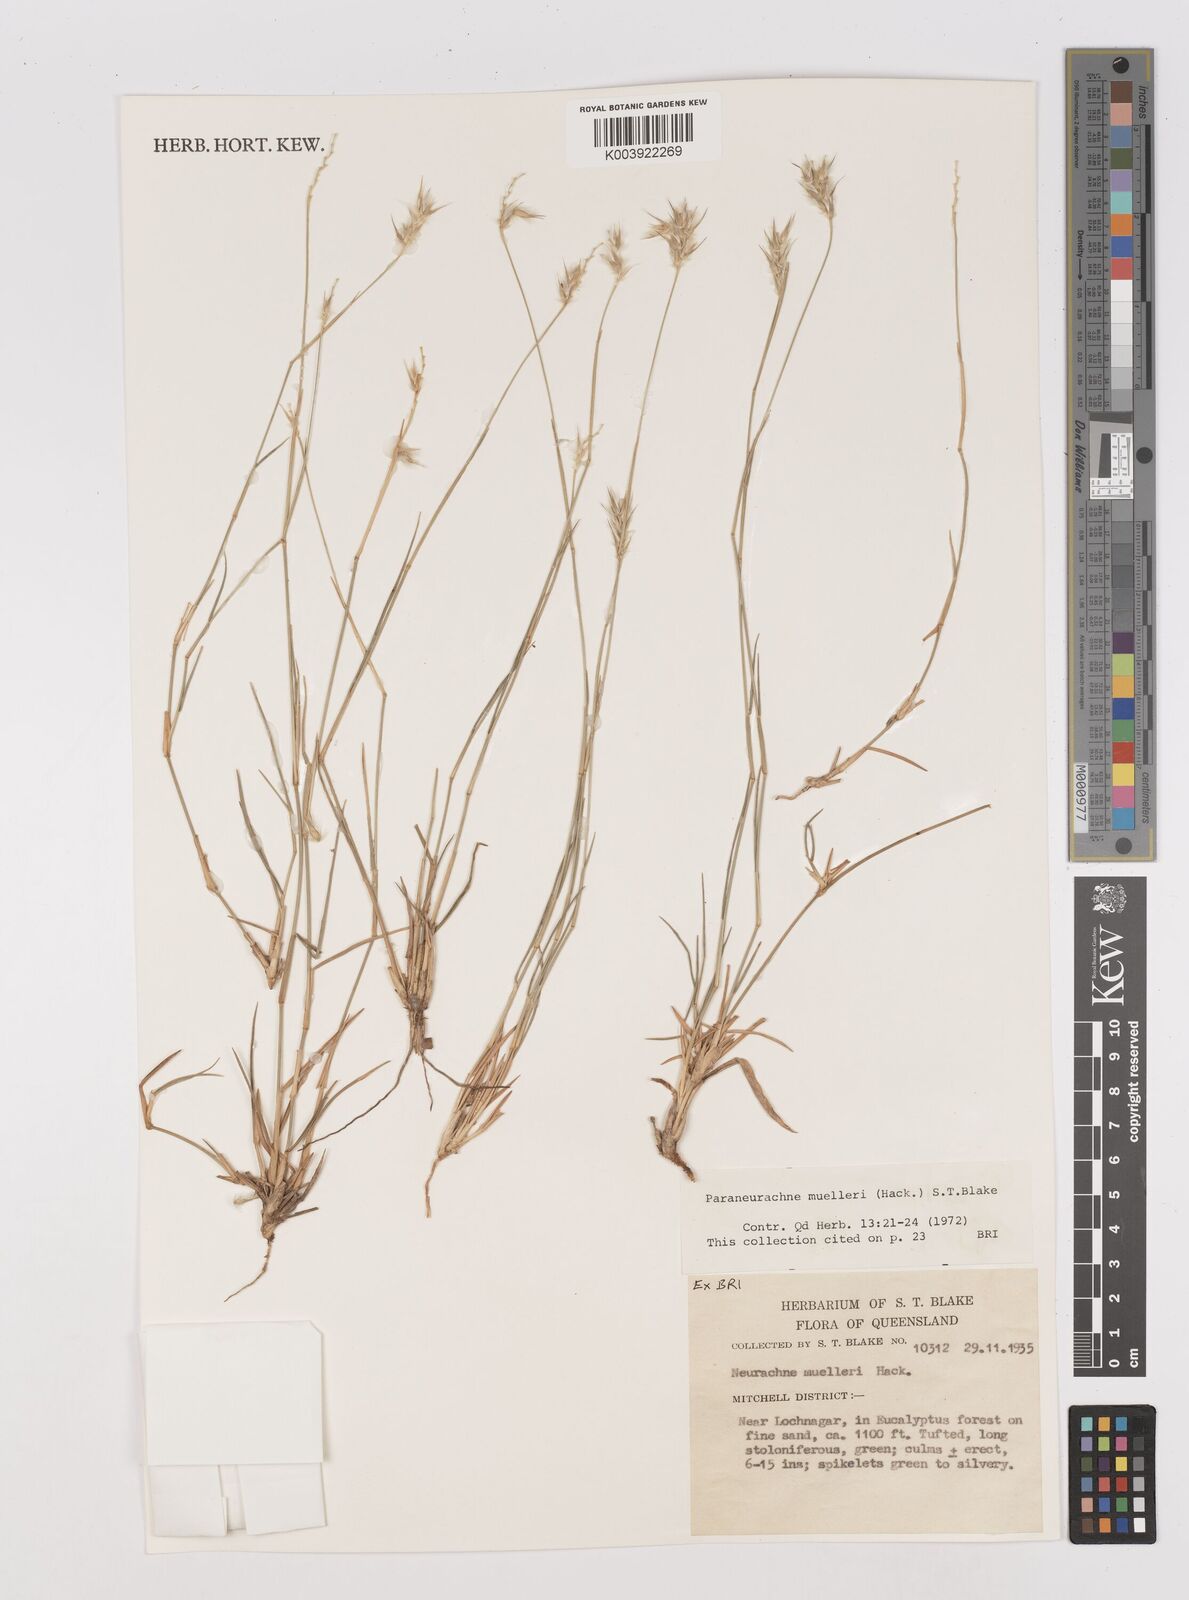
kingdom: Plantae
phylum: Tracheophyta
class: Liliopsida
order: Poales
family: Poaceae
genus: Neurachne
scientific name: Neurachne muelleri
